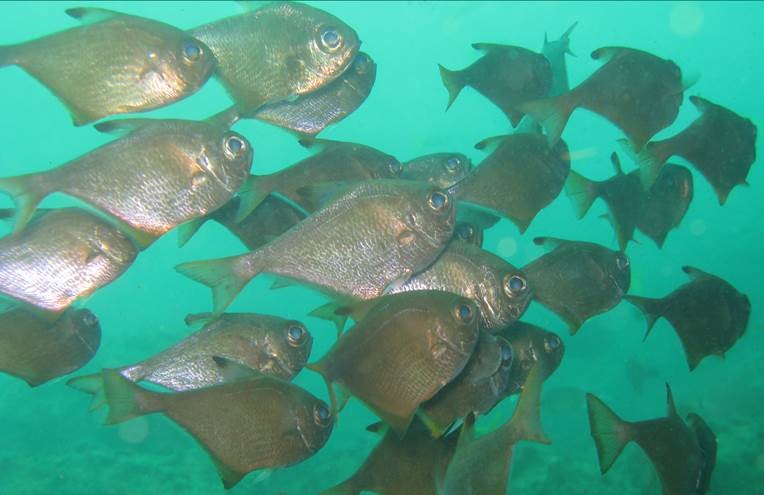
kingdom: Animalia
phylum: Chordata
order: Perciformes
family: Pempheridae
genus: Pempheris
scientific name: Pempheris cuprea
